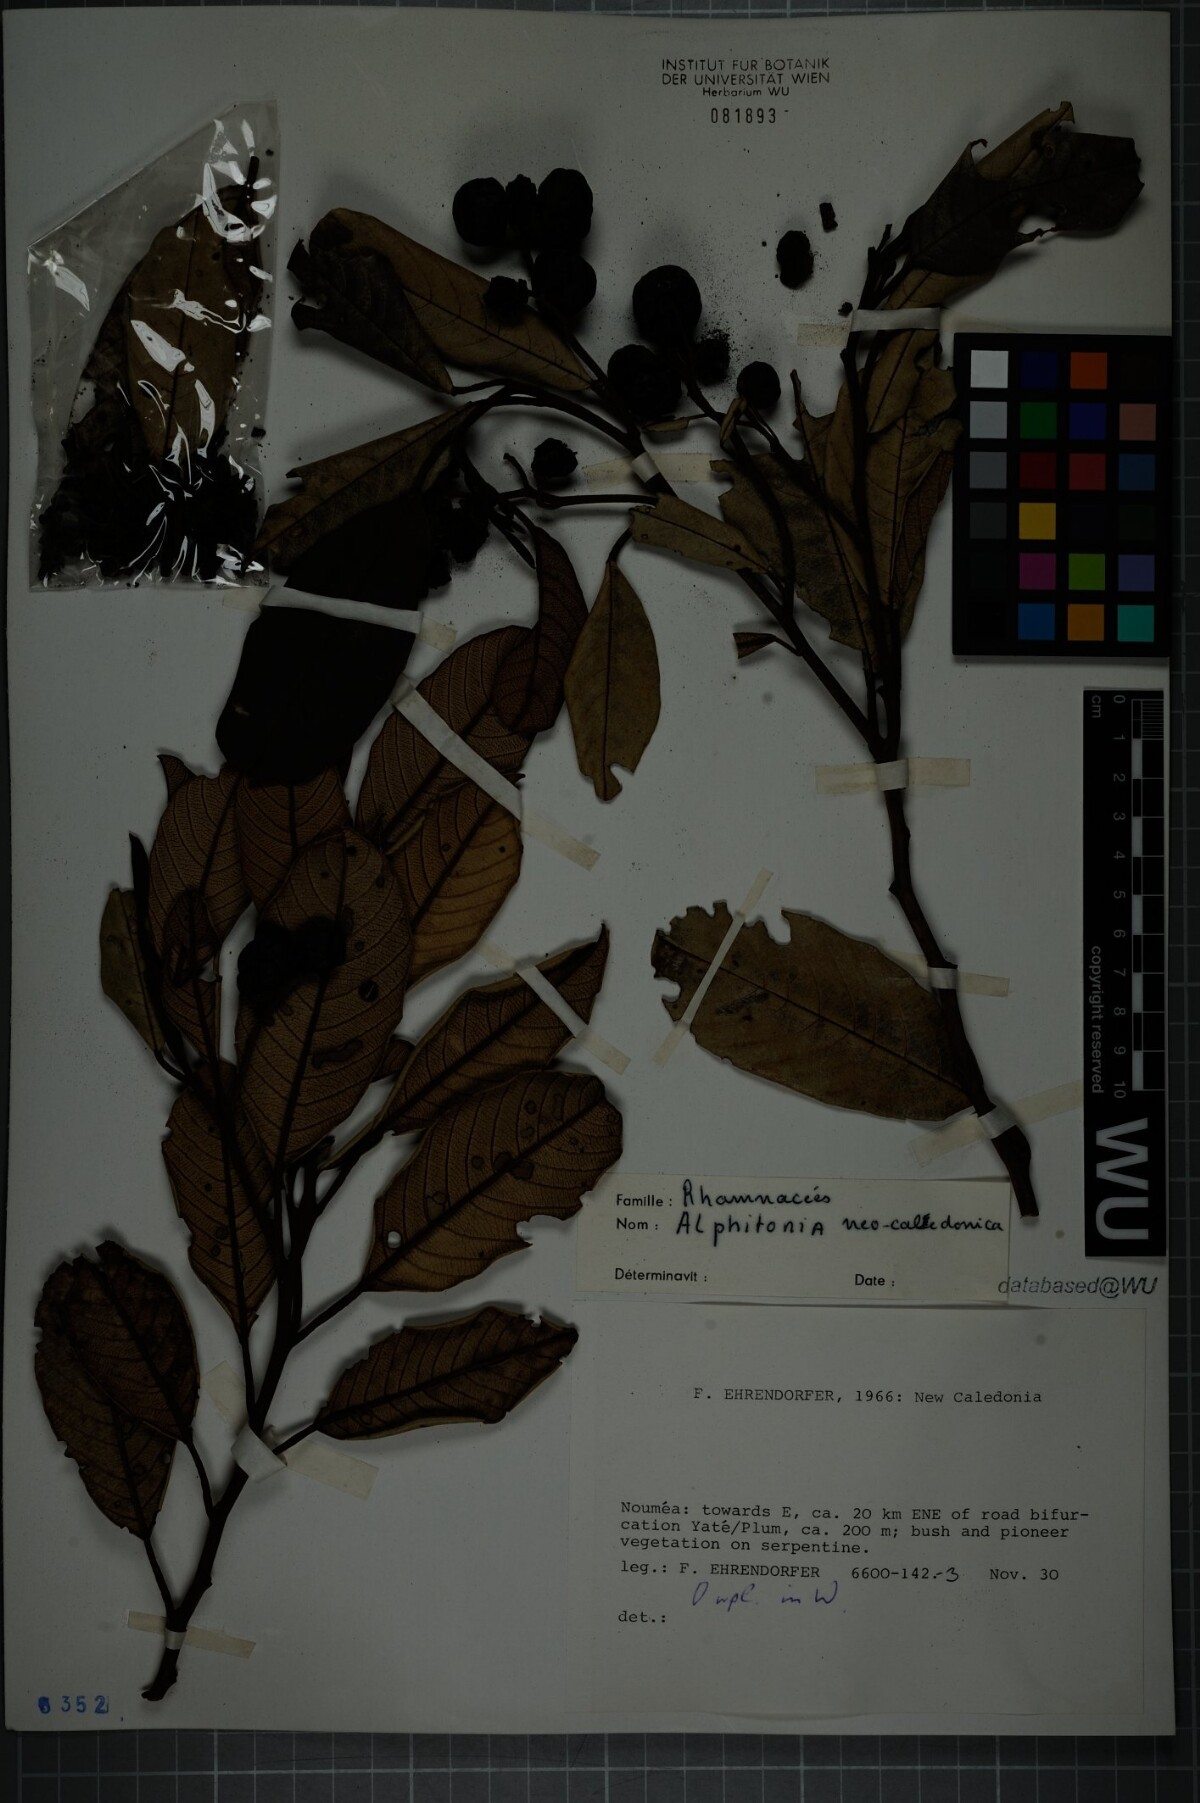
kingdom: Plantae
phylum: Tracheophyta
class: Magnoliopsida
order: Rosales
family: Rhamnaceae
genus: Alphitonia
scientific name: Alphitonia neocaledonica
